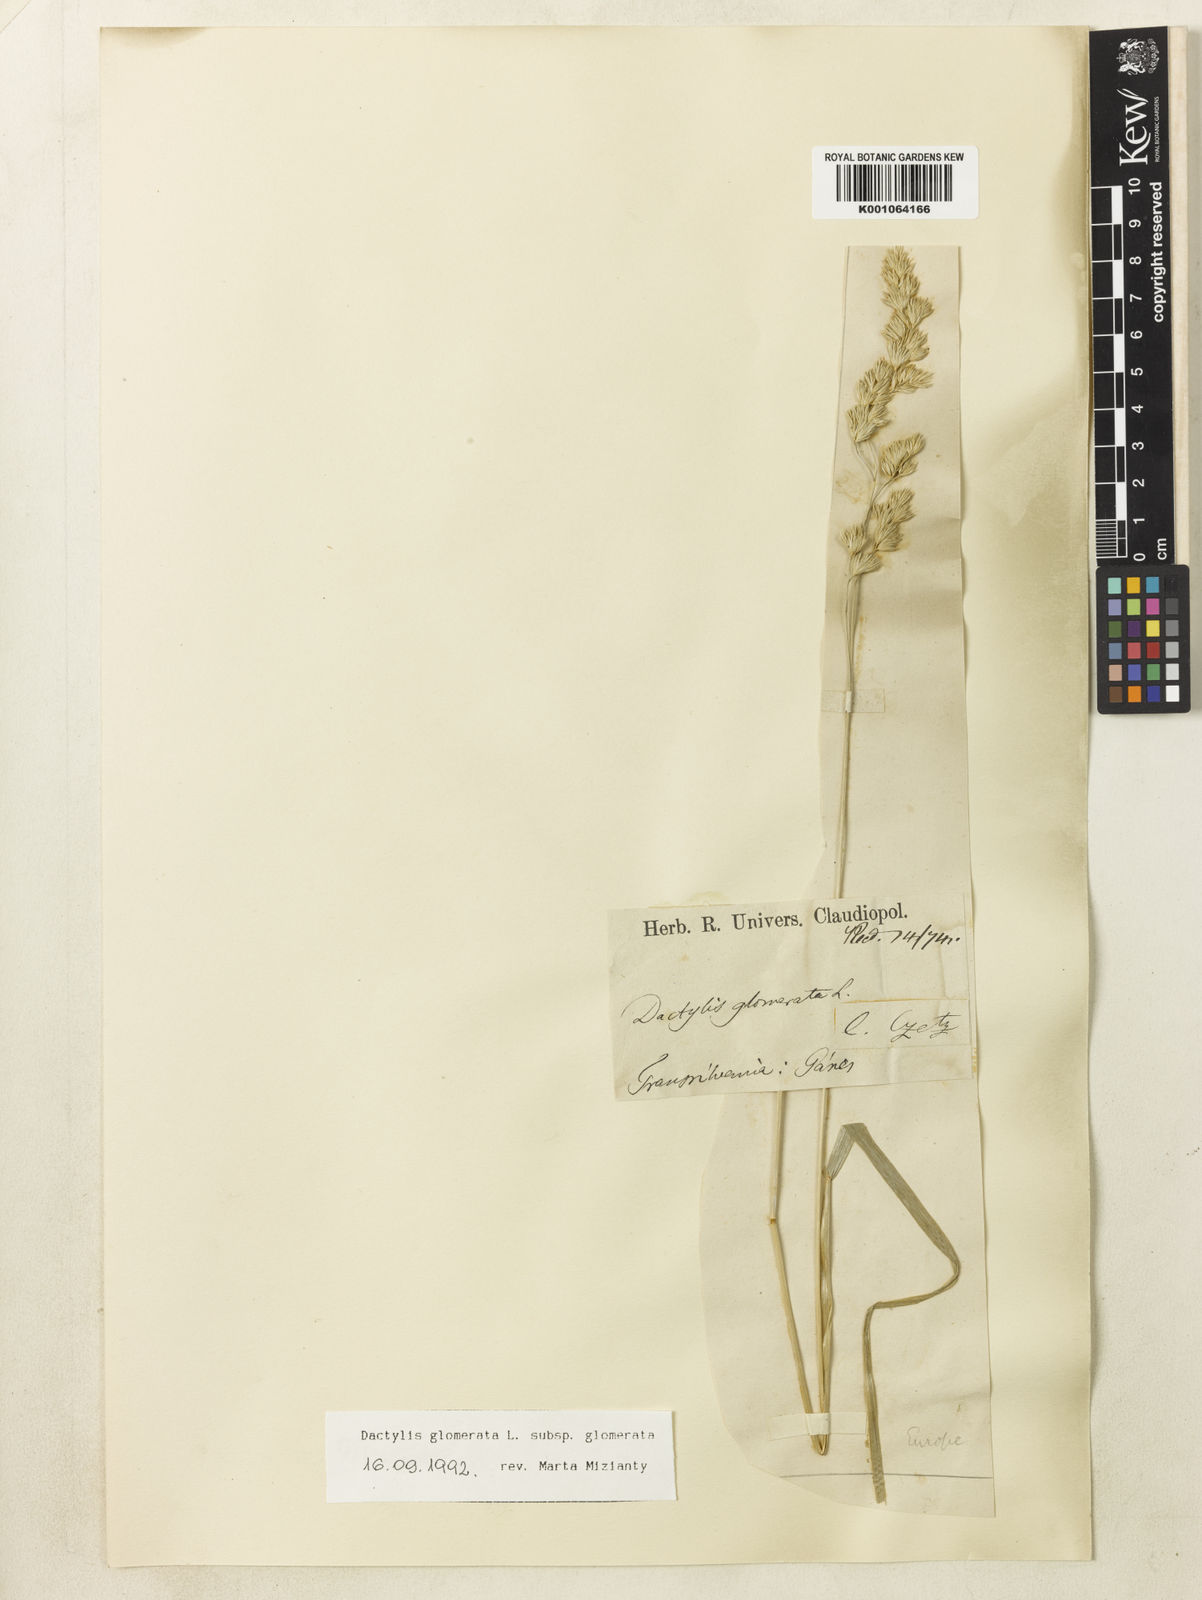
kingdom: Plantae
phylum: Tracheophyta
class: Liliopsida
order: Poales
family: Poaceae
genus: Dactylis
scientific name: Dactylis glomerata
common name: Orchardgrass
